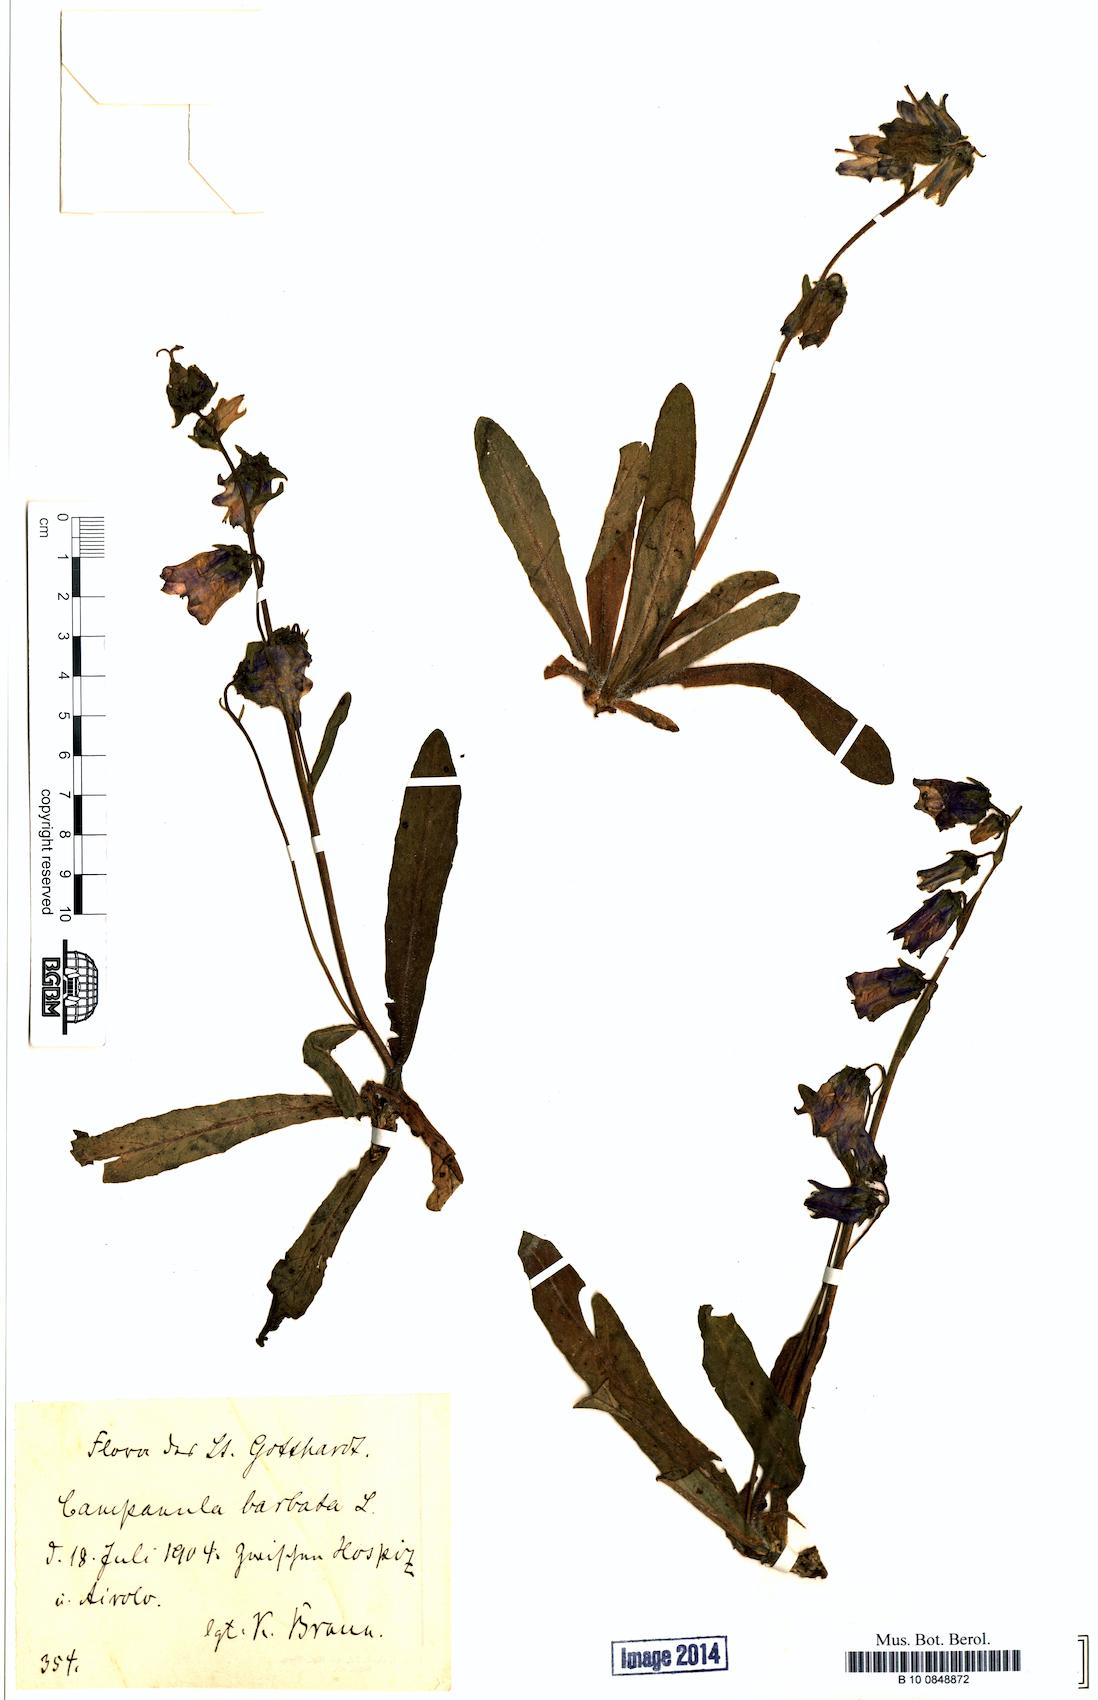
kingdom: Plantae
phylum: Tracheophyta
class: Magnoliopsida
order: Asterales
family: Campanulaceae
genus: Campanula
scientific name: Campanula barbata
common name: Bearded bellflower
